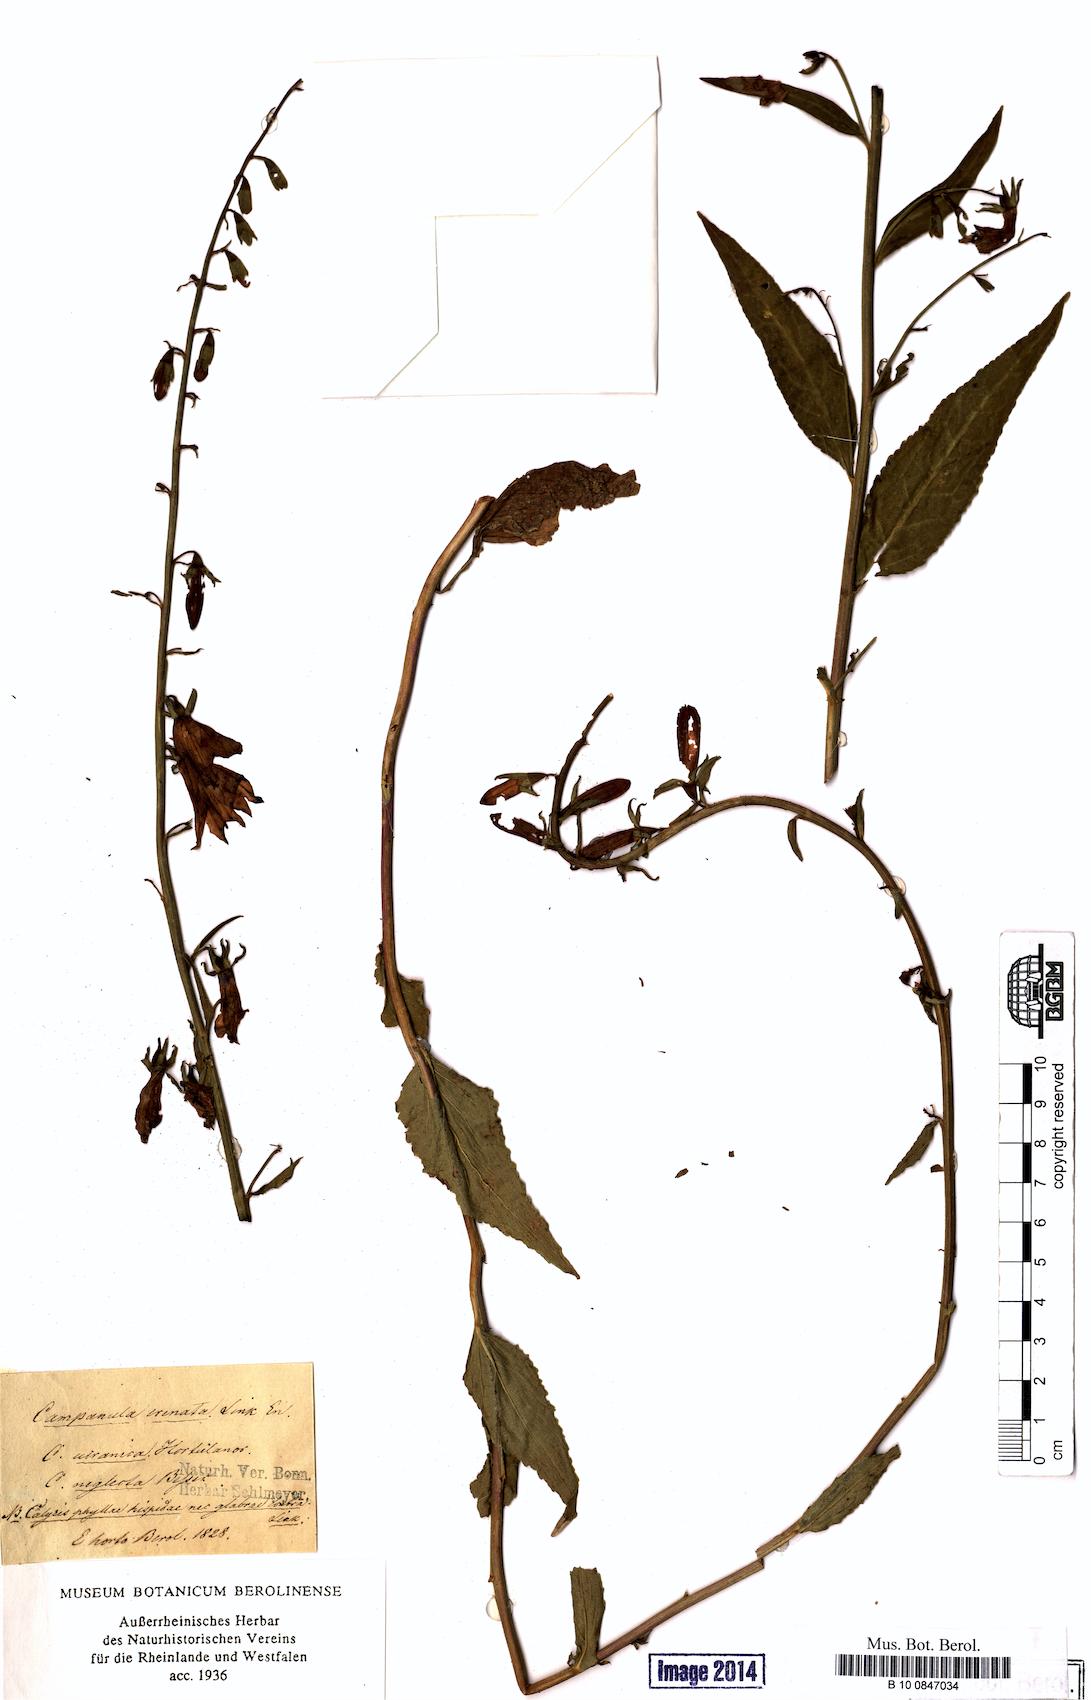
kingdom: Plantae
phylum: Tracheophyta
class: Magnoliopsida
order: Asterales
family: Campanulaceae
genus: Campanula
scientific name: Campanula rapunculoides
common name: Creeping bellflower
